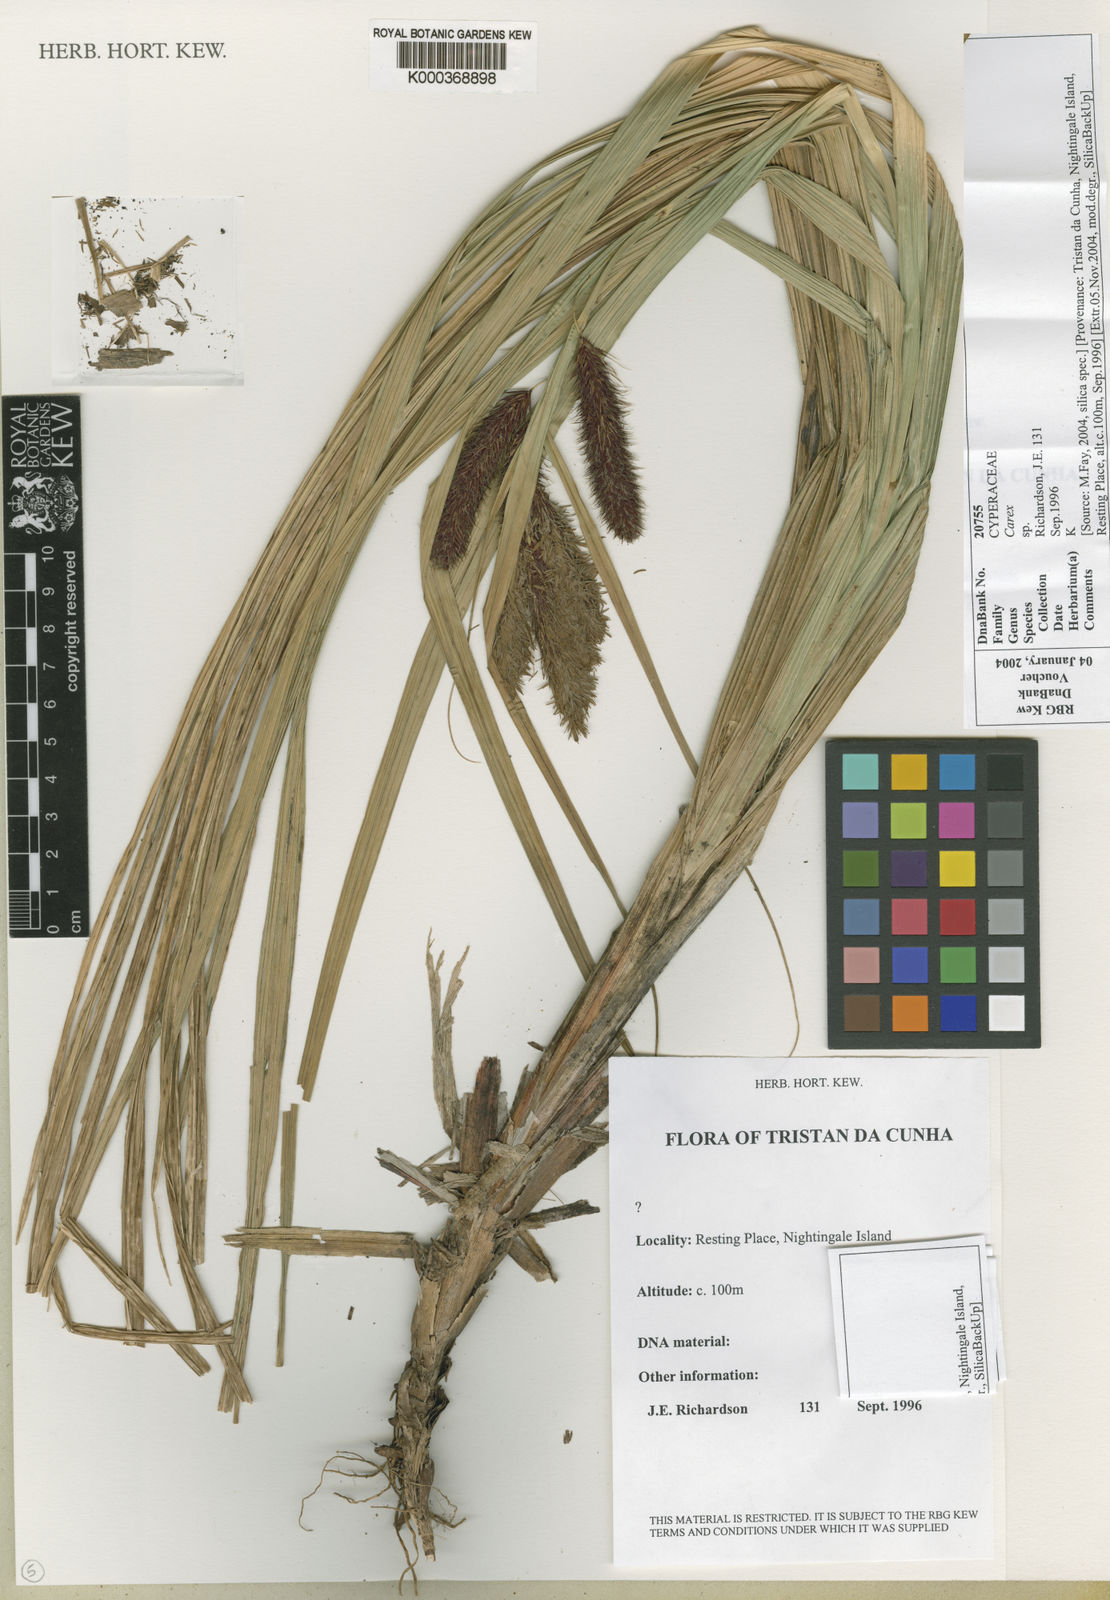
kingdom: Plantae
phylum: Tracheophyta
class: Liliopsida
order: Poales
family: Cyperaceae
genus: Carex
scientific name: Carex insularis
